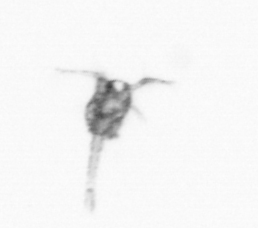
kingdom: Animalia
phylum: Arthropoda
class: Copepoda
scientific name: Copepoda
